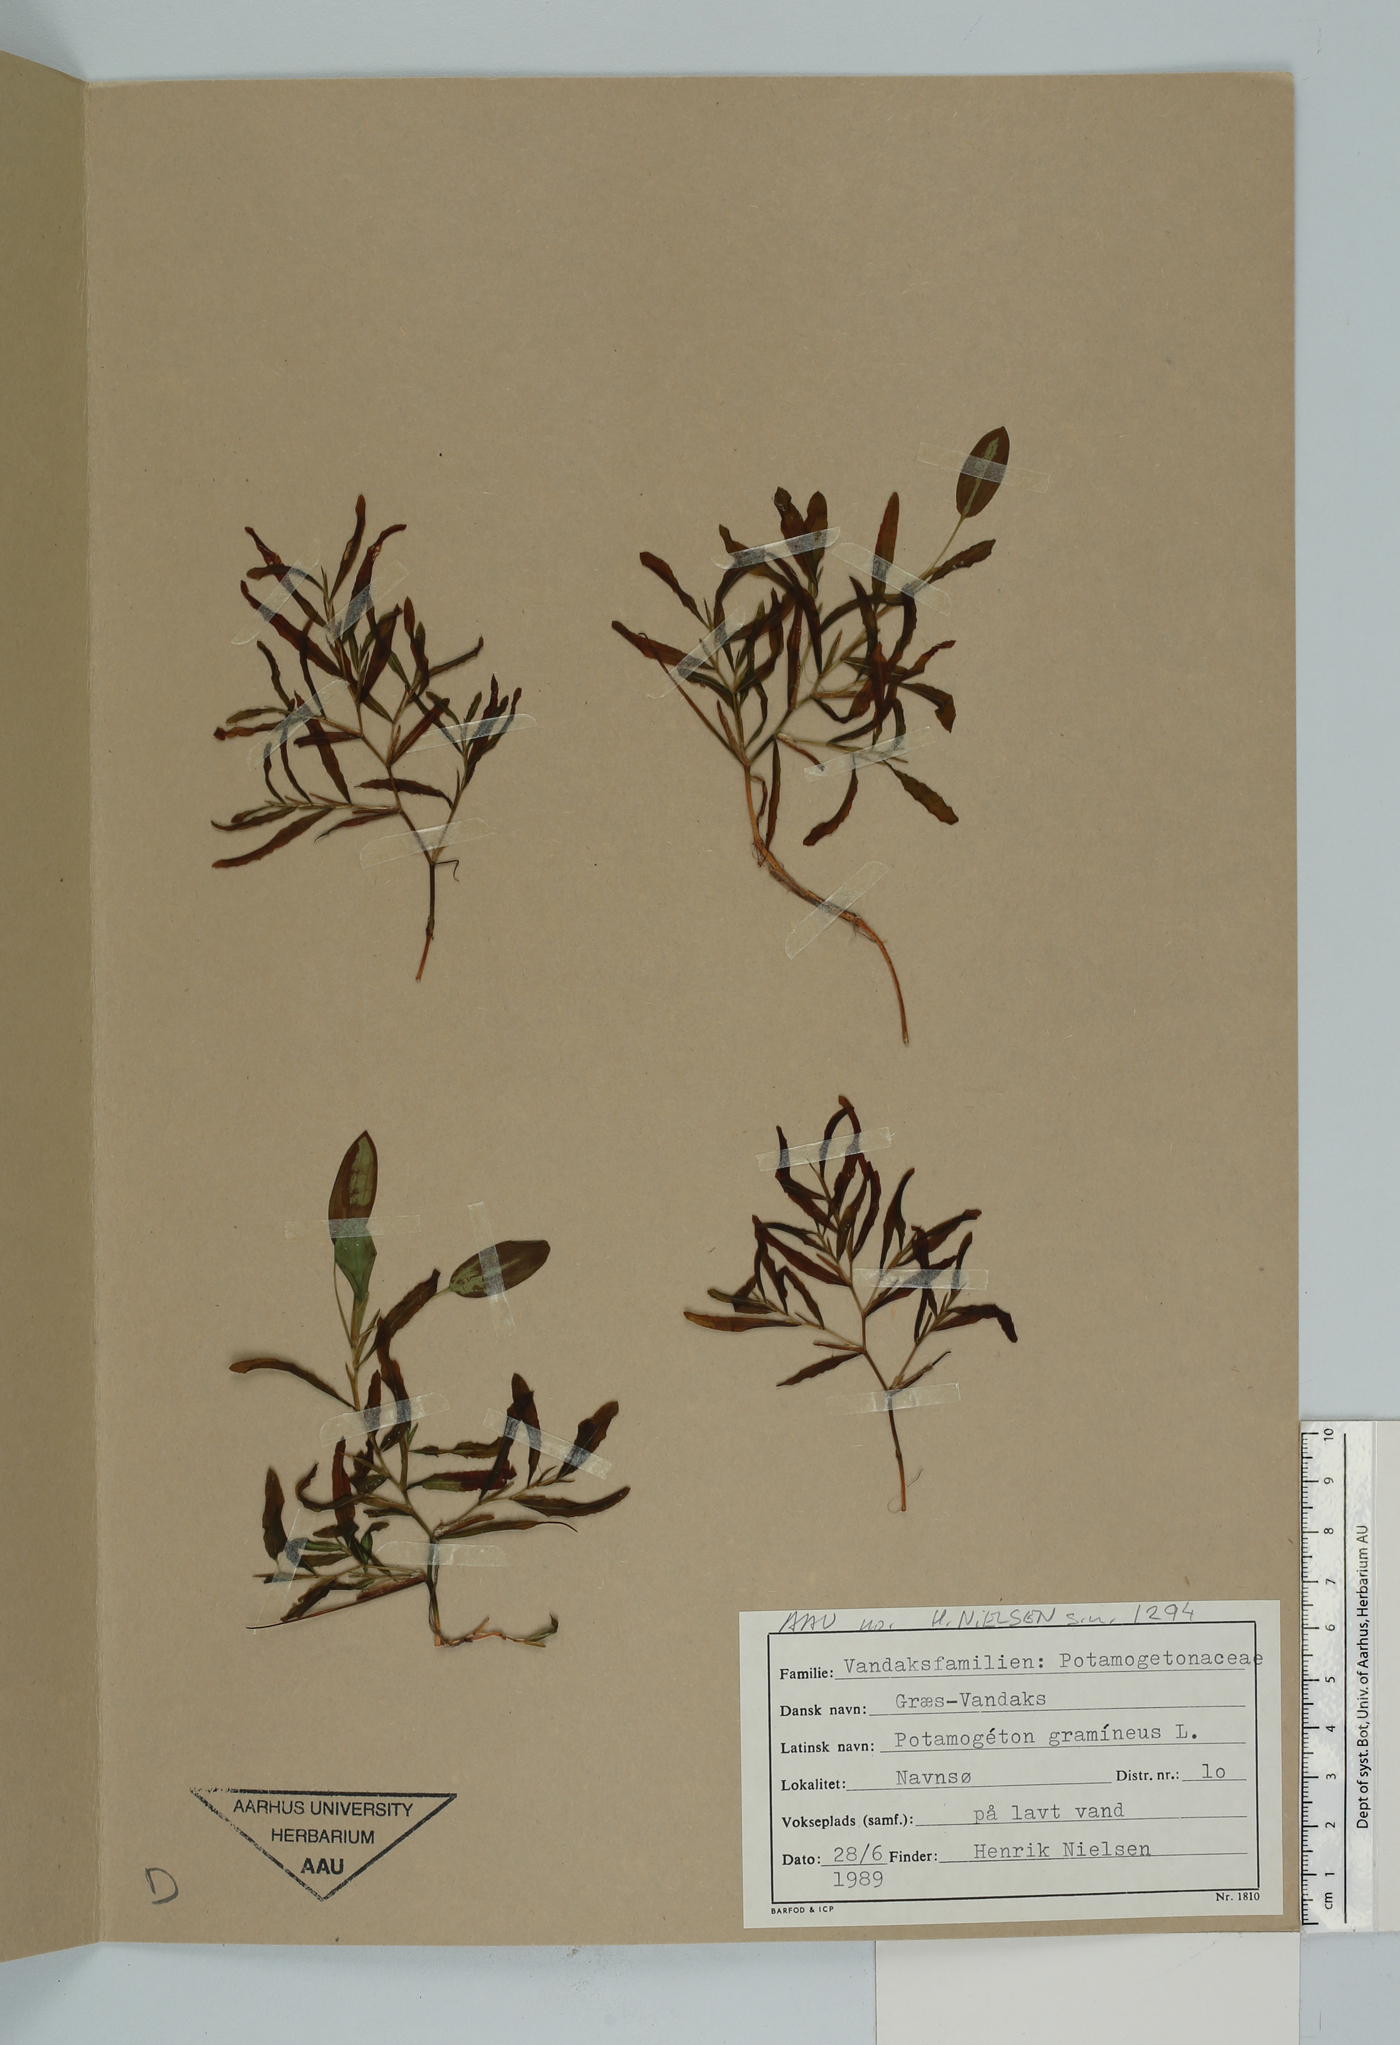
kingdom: Plantae
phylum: Tracheophyta
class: Liliopsida
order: Alismatales
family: Potamogetonaceae
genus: Potamogeton
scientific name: Potamogeton gramineus
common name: Various-leaved pondweed
